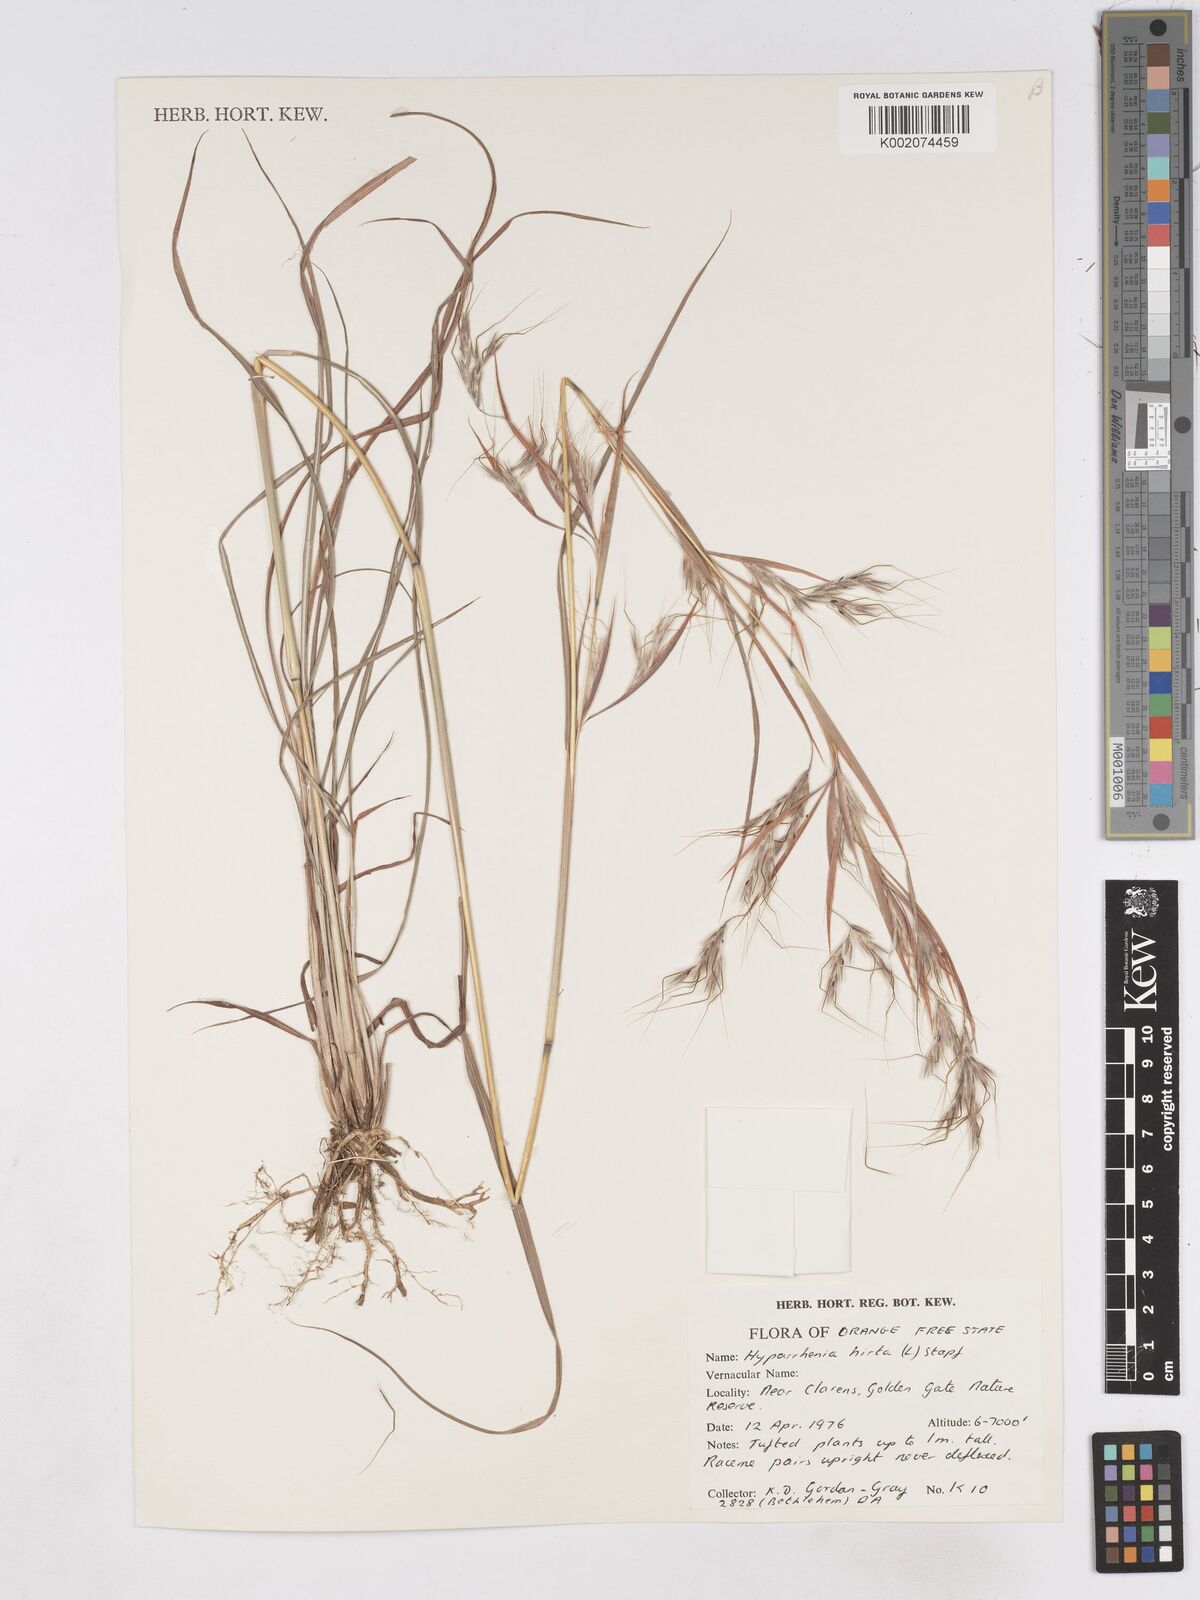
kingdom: Plantae
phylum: Tracheophyta
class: Liliopsida
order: Poales
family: Poaceae
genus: Hyparrhenia
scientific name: Hyparrhenia hirta
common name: Thatching grass
